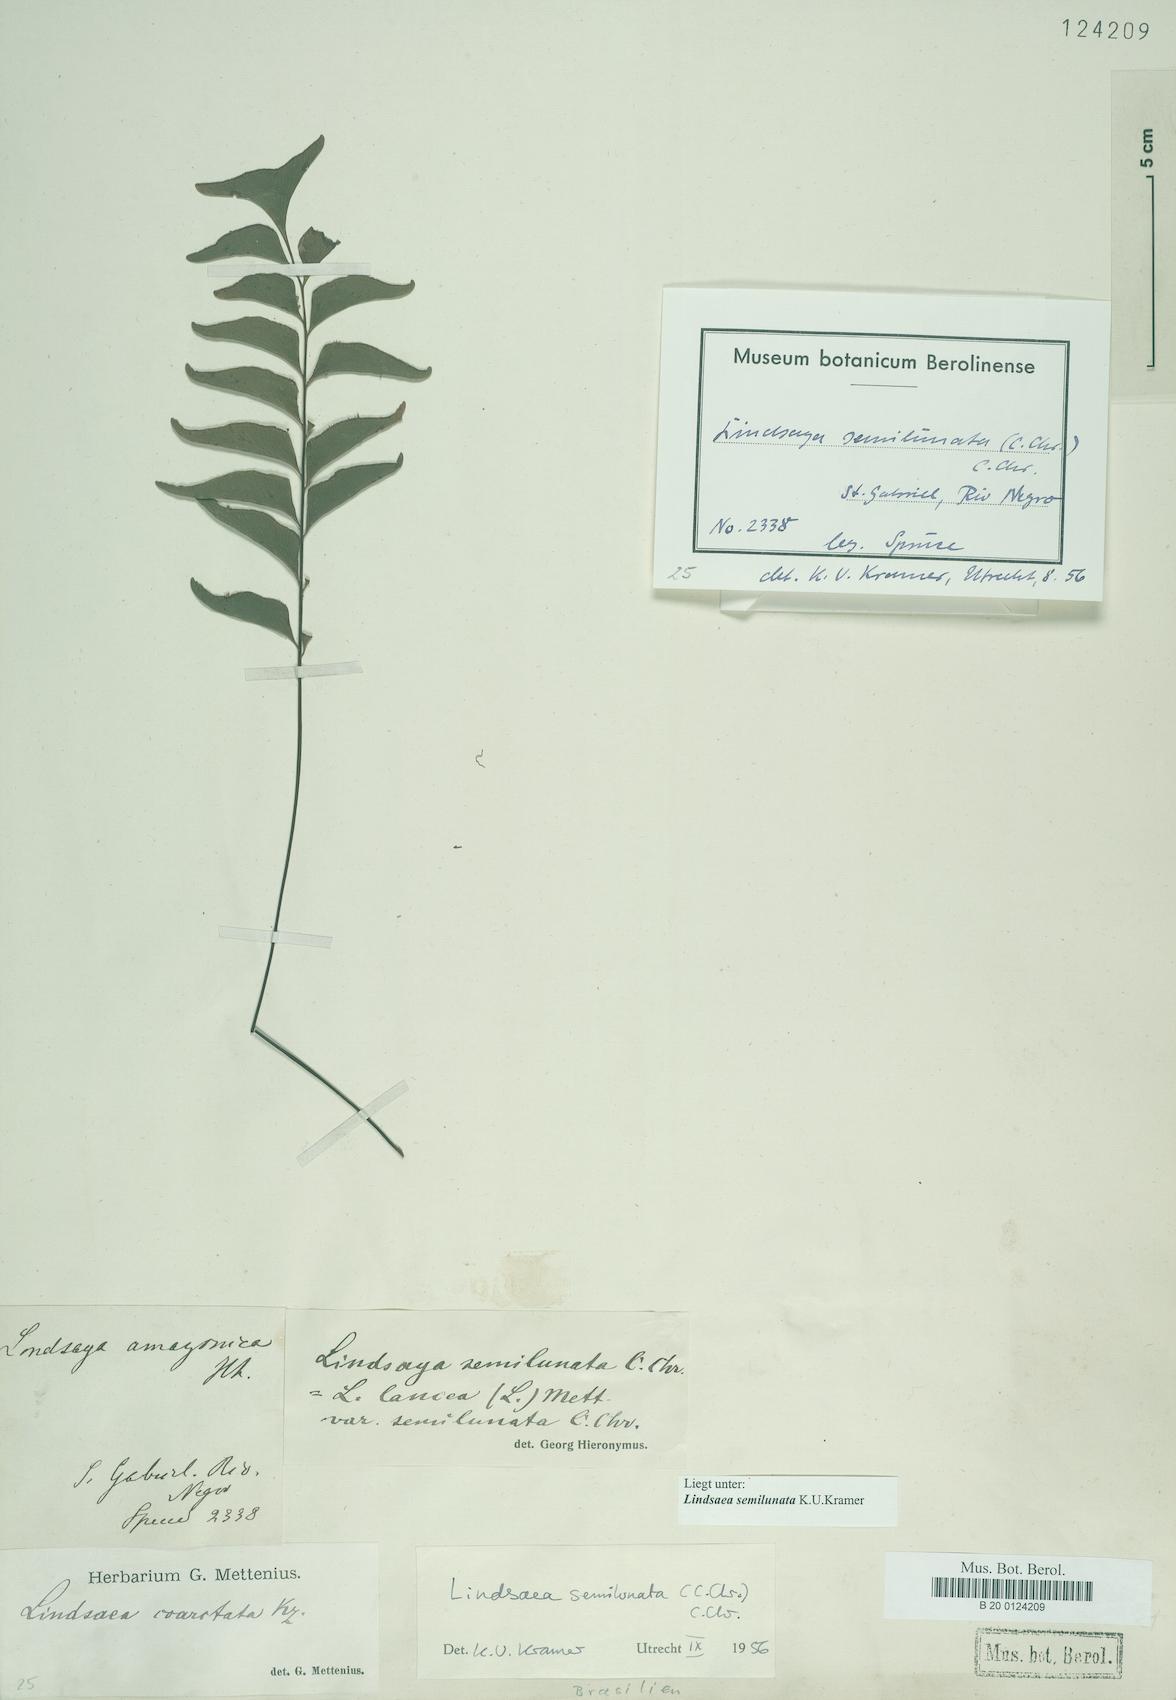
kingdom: Plantae
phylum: Tracheophyta
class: Polypodiopsida
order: Polypodiales
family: Lindsaeaceae
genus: Lindsaea
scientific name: Lindsaea semilunata
